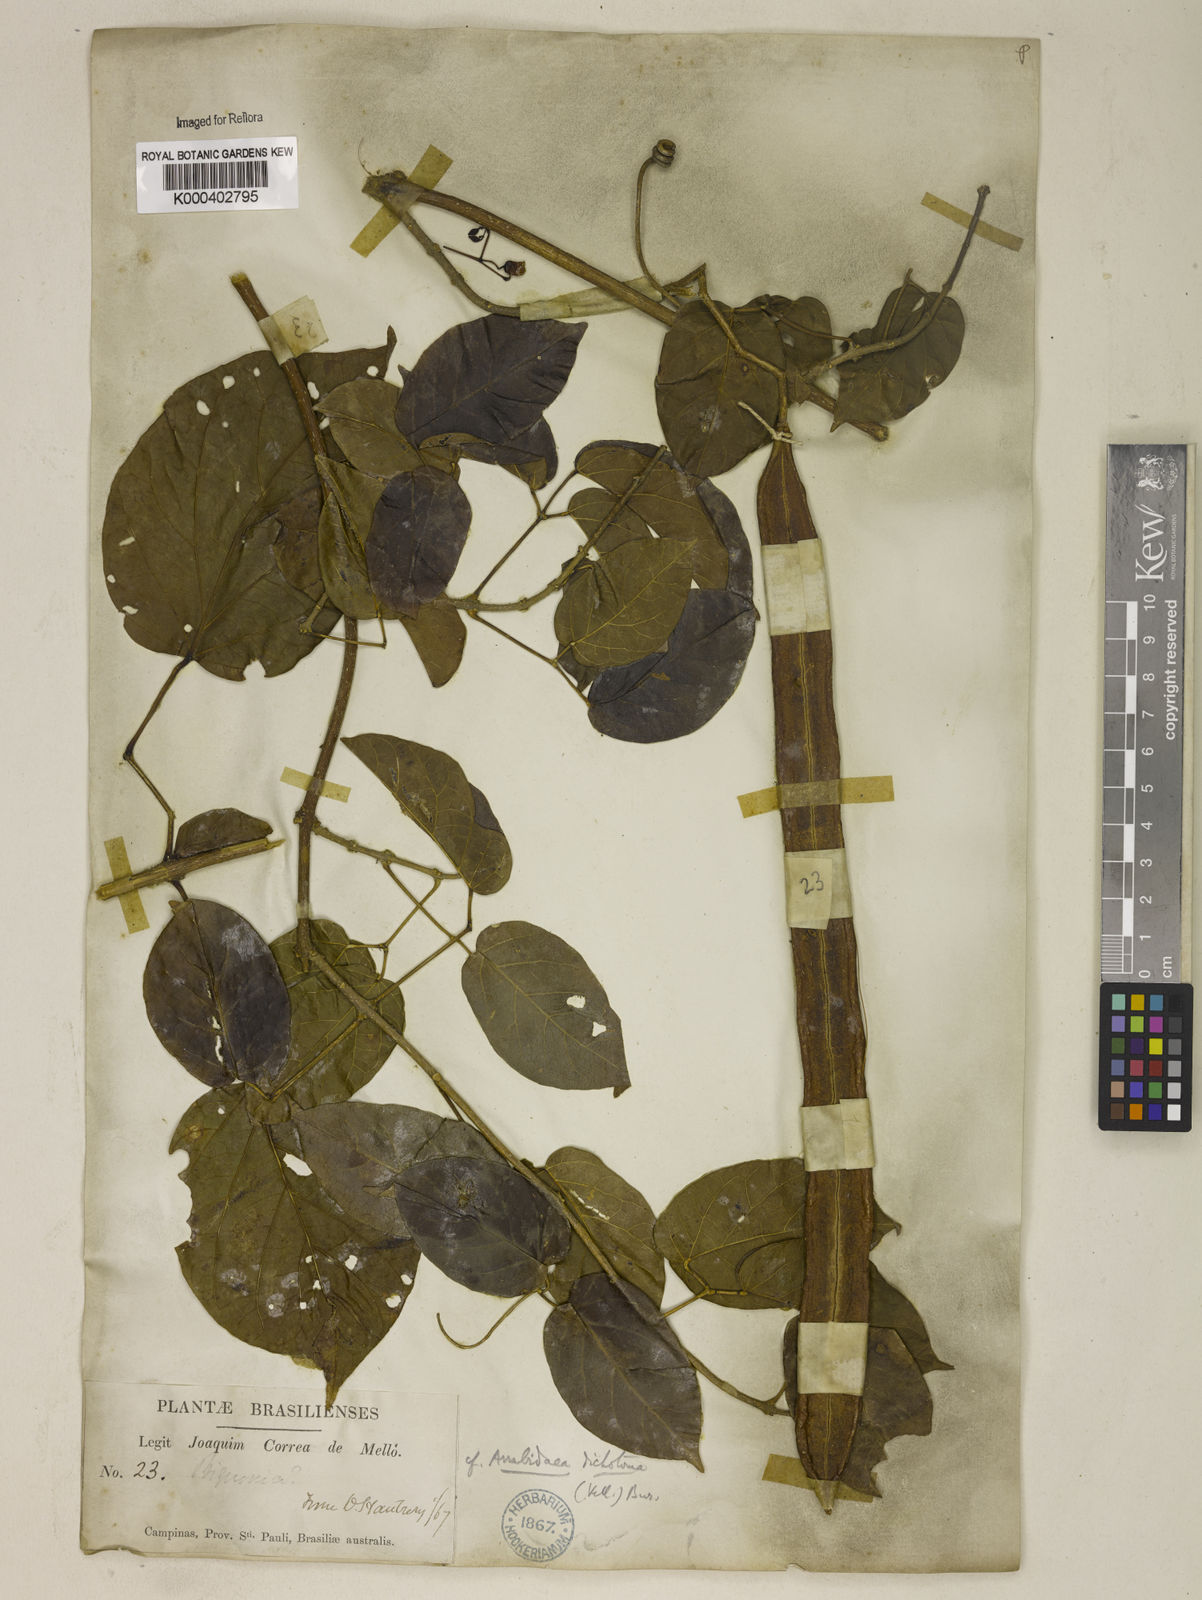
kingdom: Plantae
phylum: Tracheophyta
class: Magnoliopsida
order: Lamiales
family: Bignoniaceae
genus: Tanaecium
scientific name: Tanaecium selloi
